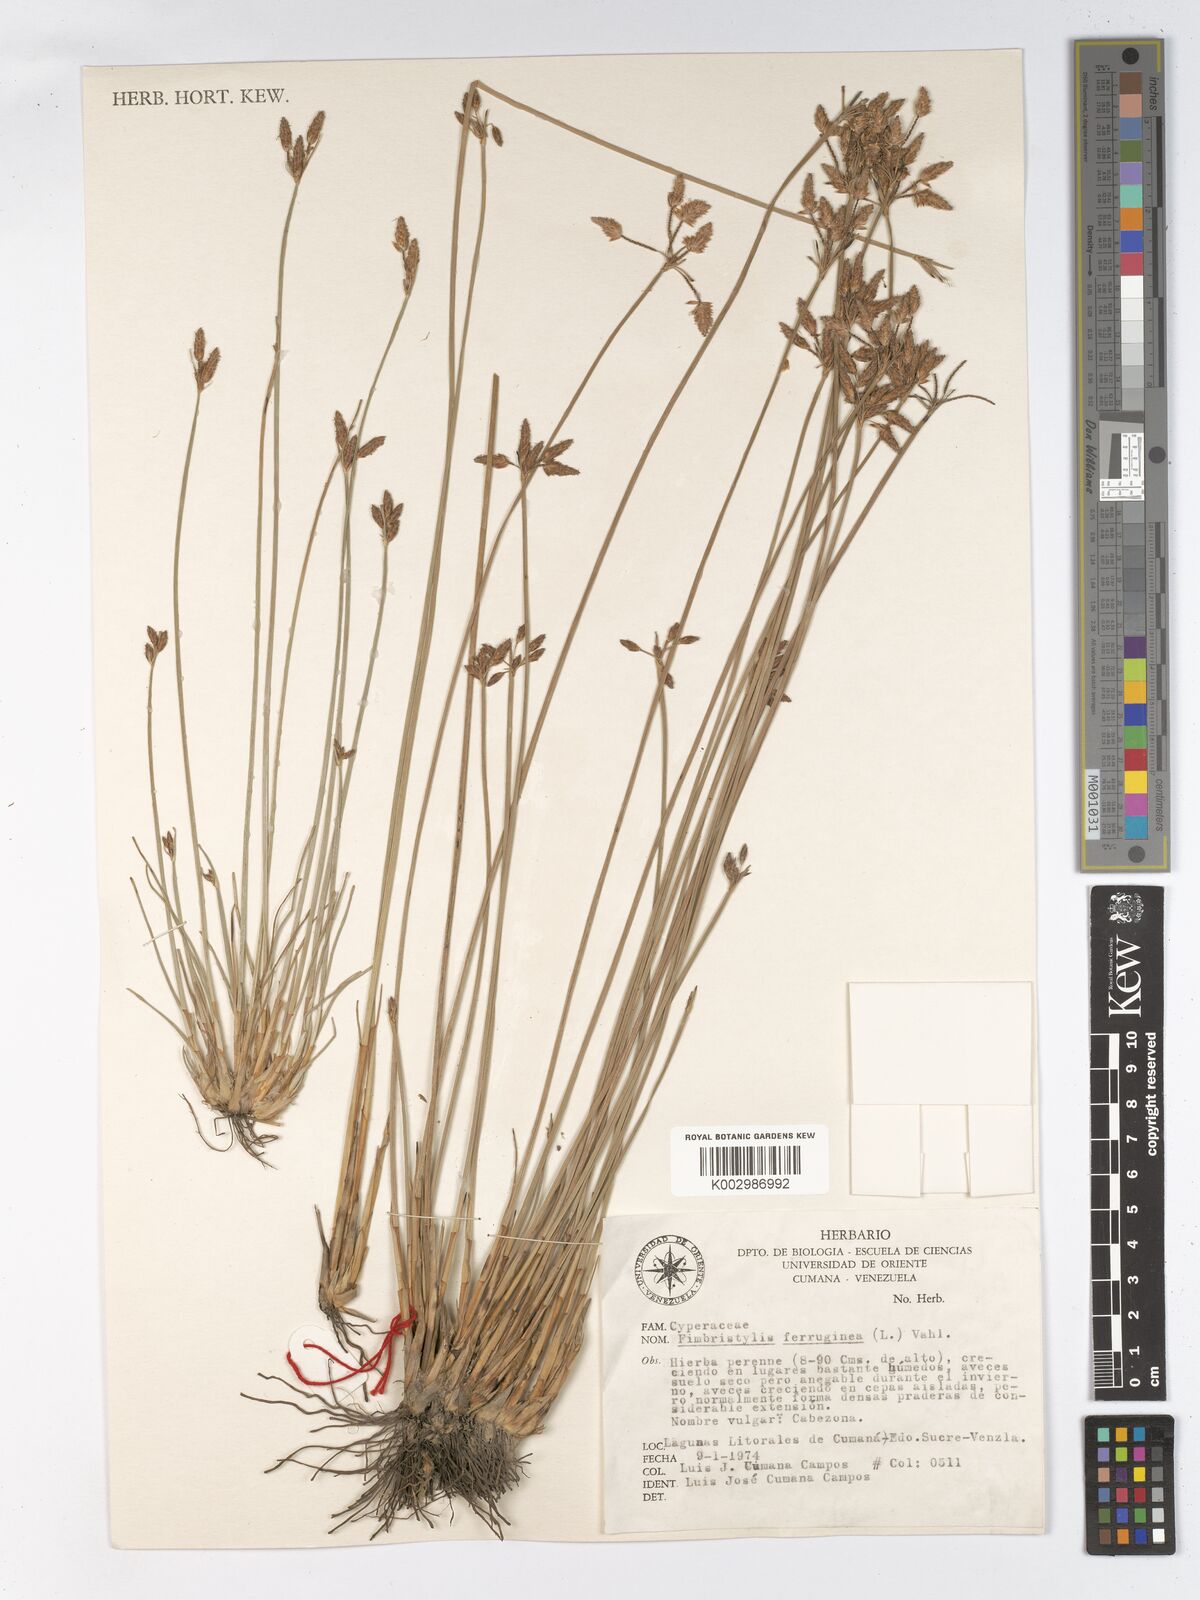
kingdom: Plantae
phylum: Tracheophyta
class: Liliopsida
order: Poales
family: Cyperaceae
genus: Fimbristylis
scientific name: Fimbristylis ferruginea
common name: West indian fimbry
